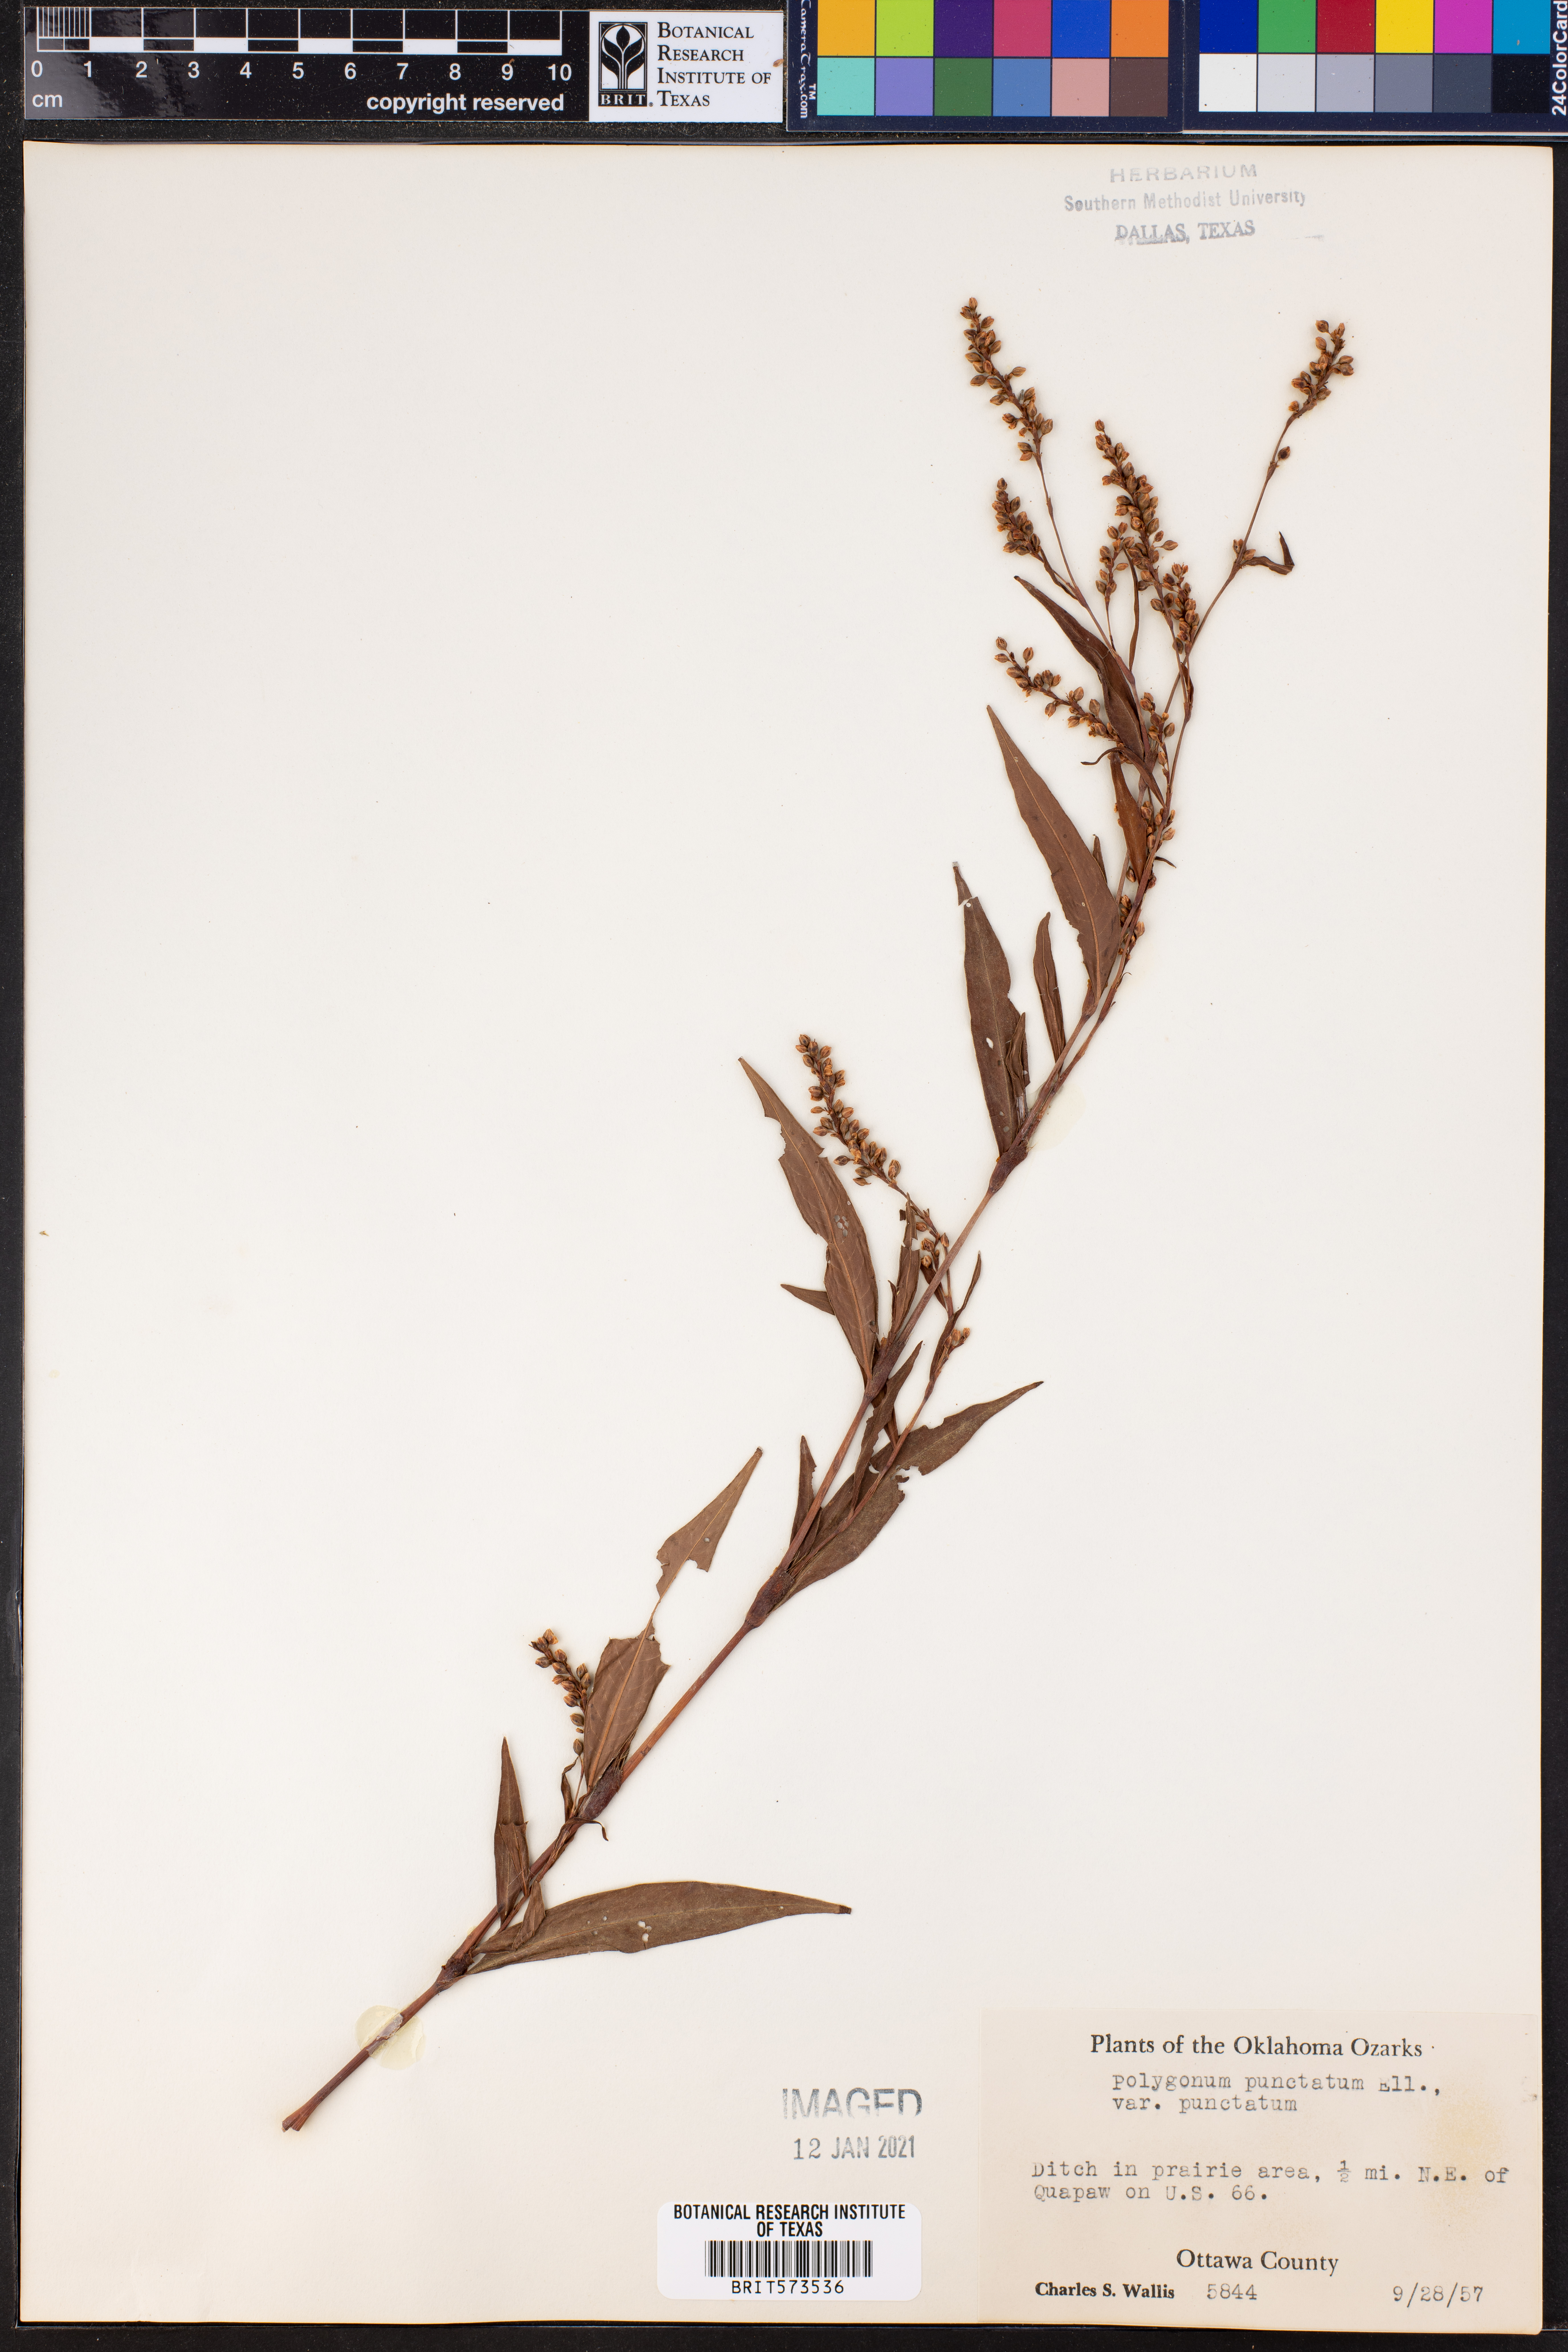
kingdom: Plantae
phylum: Tracheophyta
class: Magnoliopsida
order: Caryophyllales
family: Polygonaceae
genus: Persicaria
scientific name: Persicaria punctata
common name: Dotted smartweed
